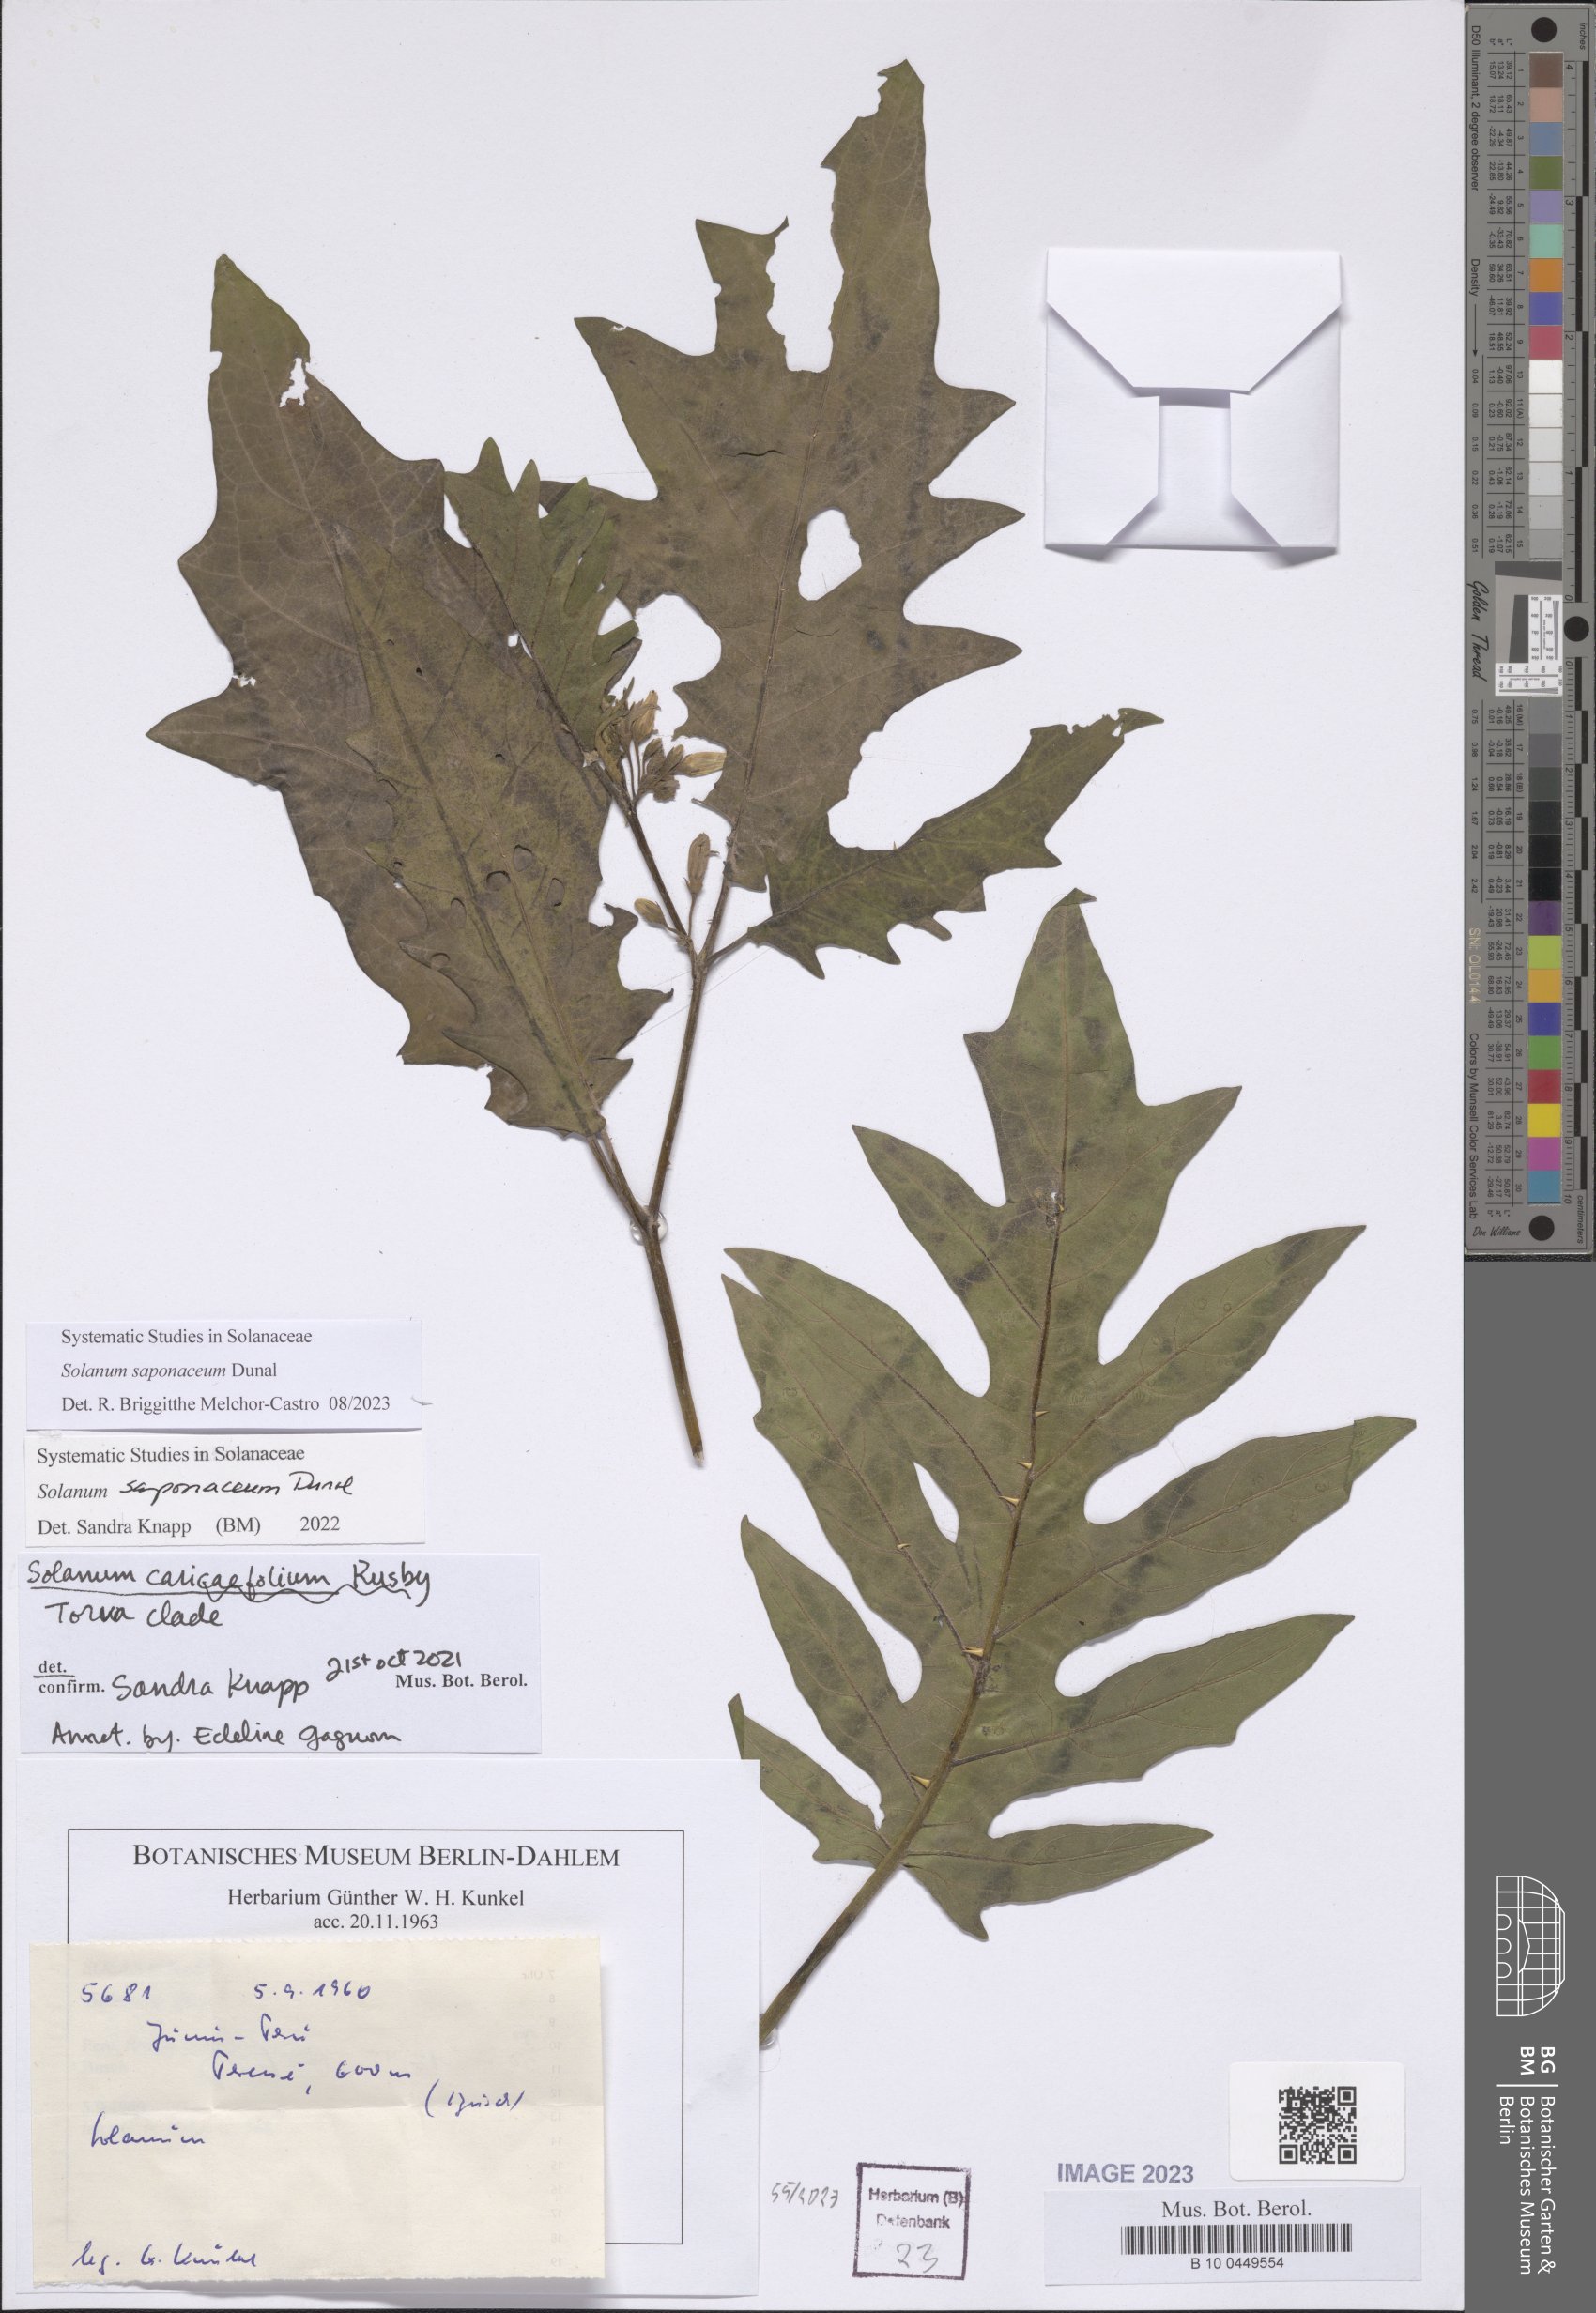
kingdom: Plantae
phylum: Tracheophyta
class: Magnoliopsida
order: Solanales
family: Solanaceae
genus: Solanum
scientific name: Solanum saponaceum
